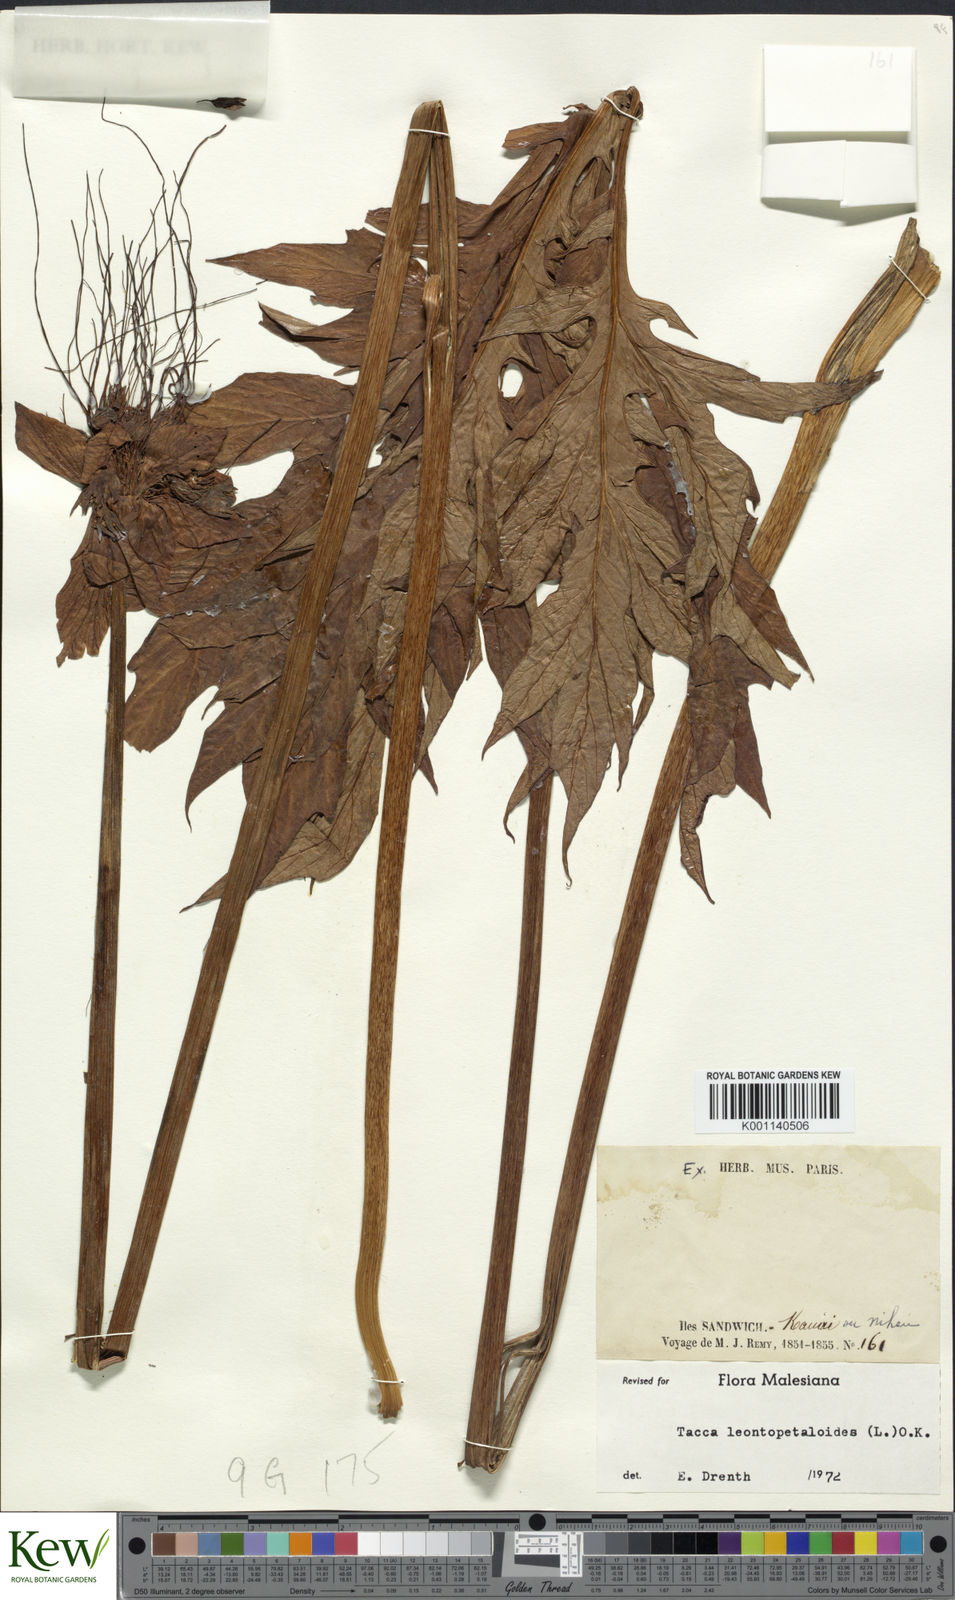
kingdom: Plantae
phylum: Tracheophyta
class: Liliopsida
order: Dioscoreales
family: Dioscoreaceae
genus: Tacca
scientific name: Tacca leontopetaloides
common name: Arrowroot
